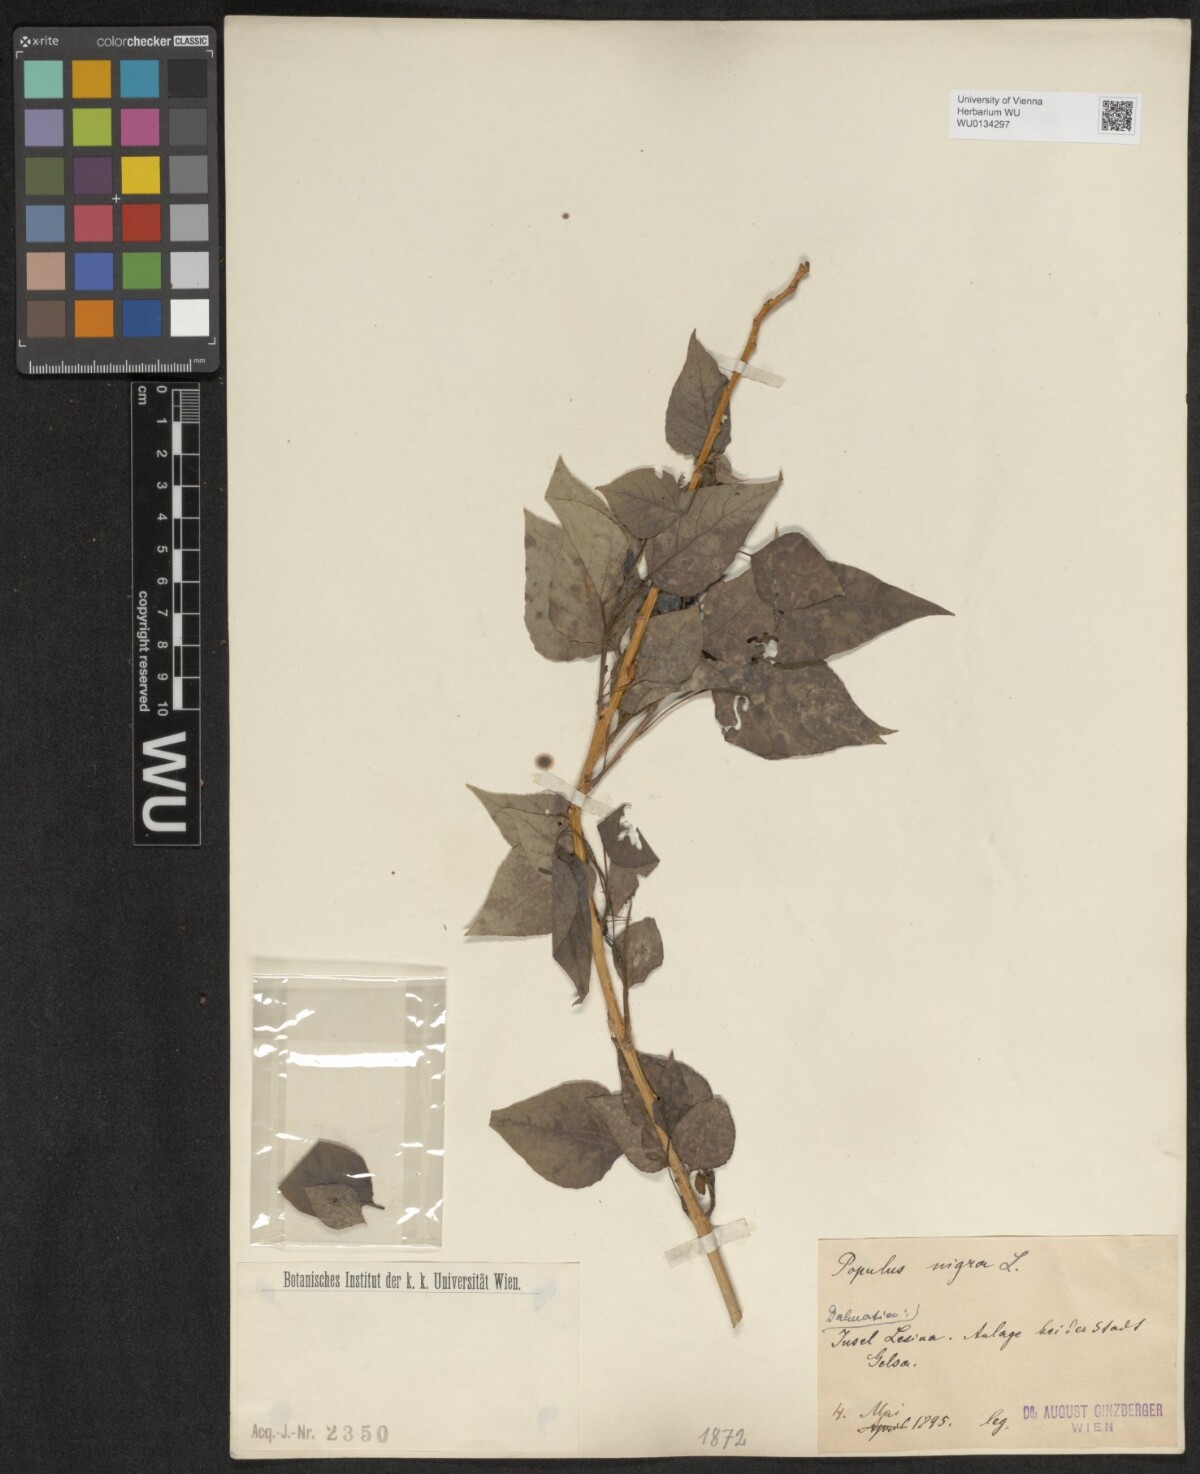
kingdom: Plantae
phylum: Tracheophyta
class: Magnoliopsida
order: Malpighiales
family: Salicaceae
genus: Populus
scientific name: Populus nigra
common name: Black poplar
